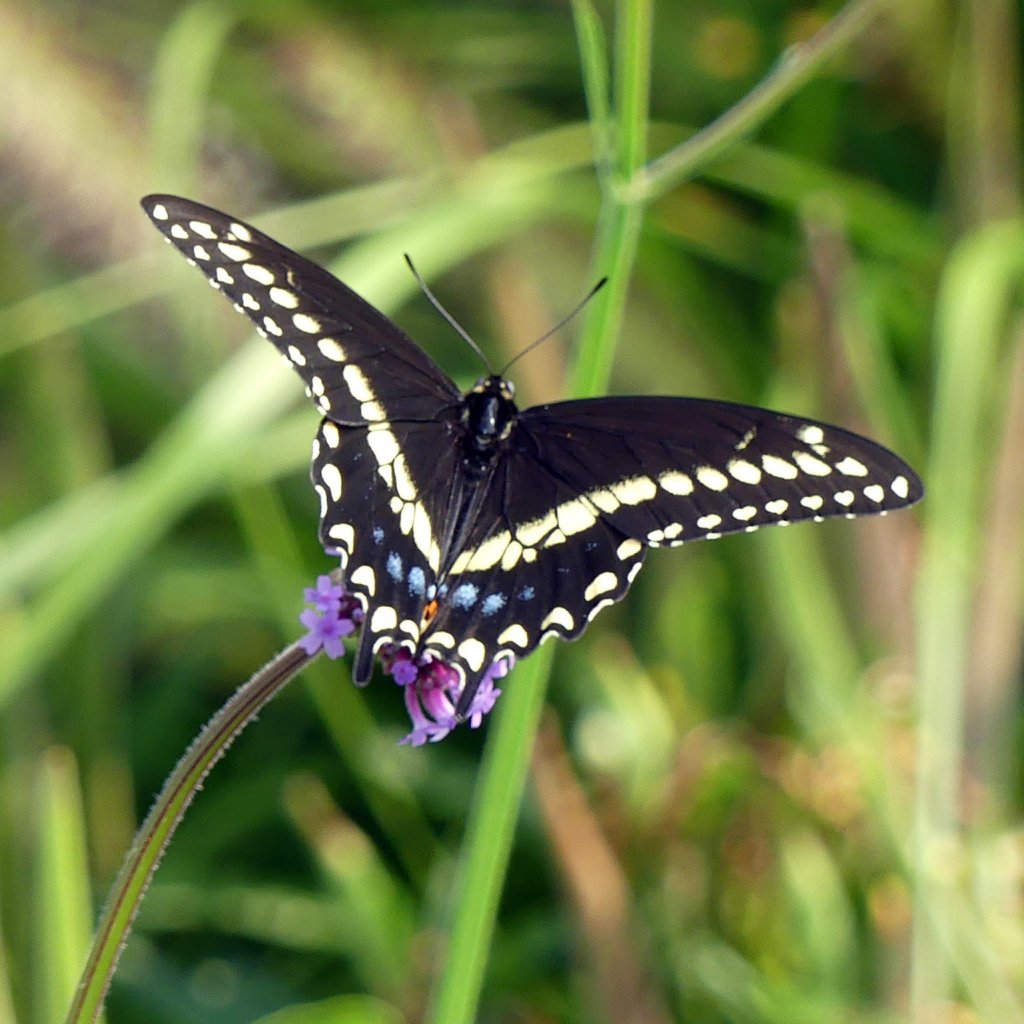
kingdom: Animalia
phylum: Arthropoda
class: Insecta
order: Lepidoptera
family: Papilionidae
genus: Papilio
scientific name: Papilio polyxenes
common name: Black Swallowtail
